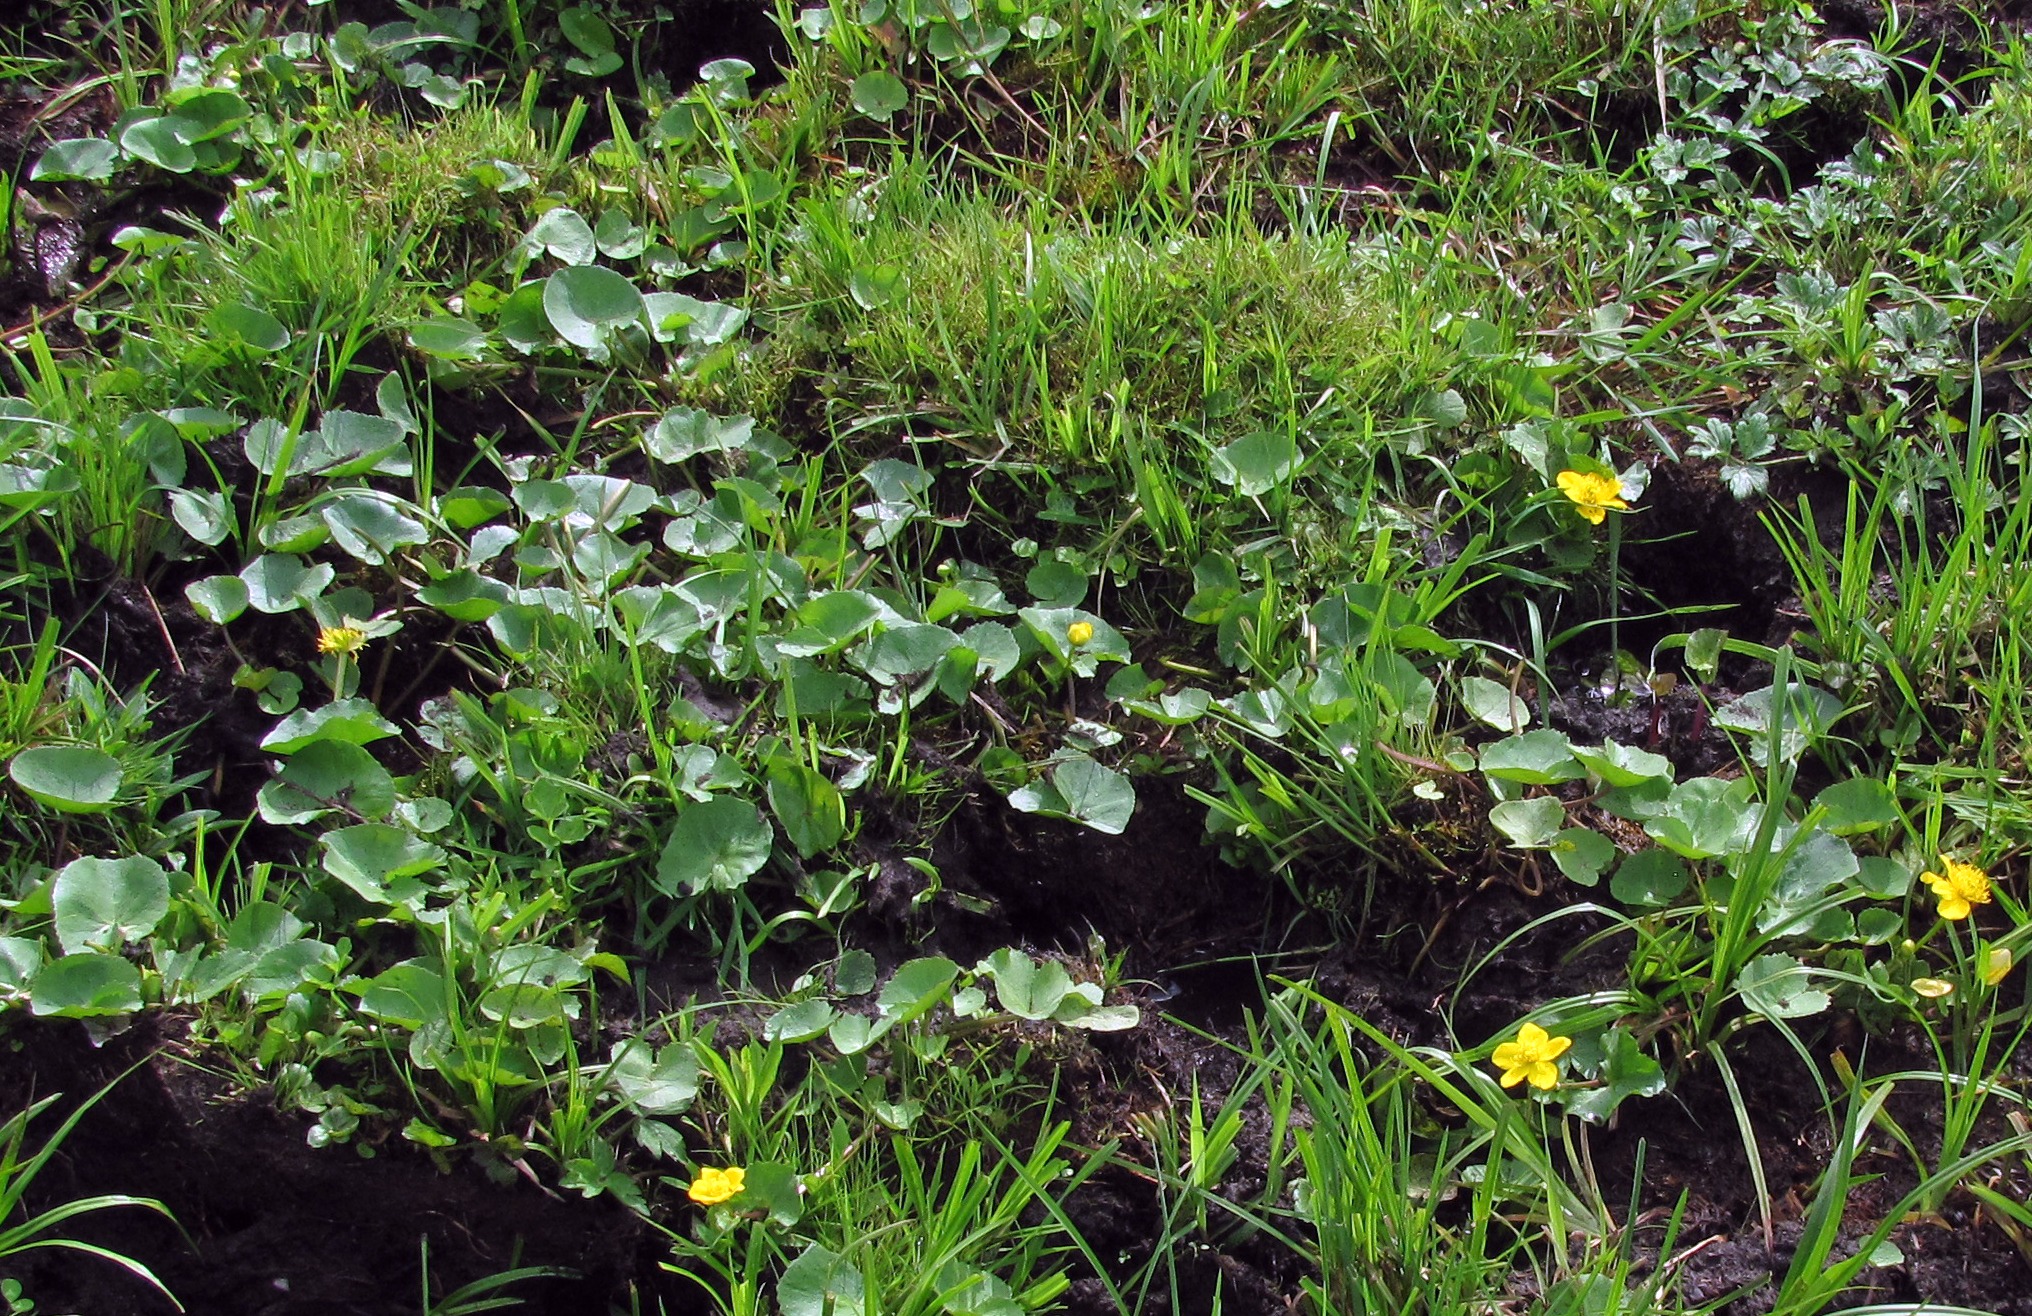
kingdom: Plantae
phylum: Tracheophyta
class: Magnoliopsida
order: Ranunculales
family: Ranunculaceae
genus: Caltha
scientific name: Caltha palustris
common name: Krybende kabbeleje
